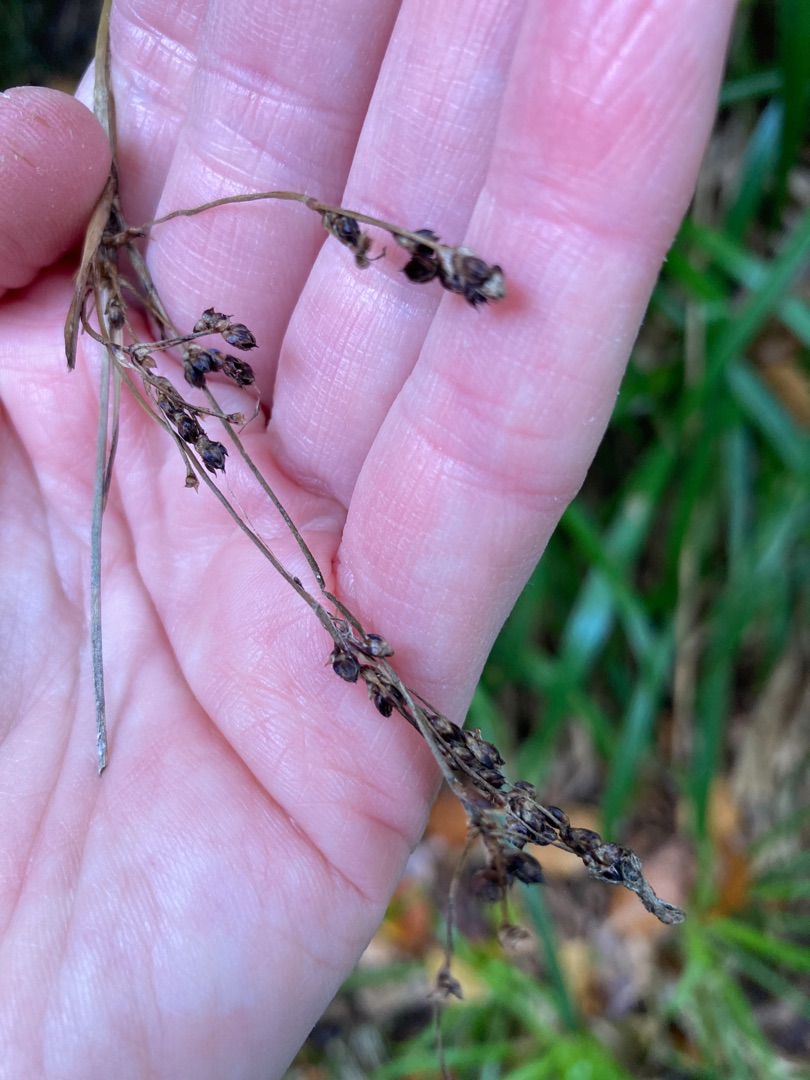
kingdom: Plantae
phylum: Tracheophyta
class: Liliopsida
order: Poales
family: Juncaceae
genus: Luzula
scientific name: Luzula sylvatica
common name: Stor frytle
